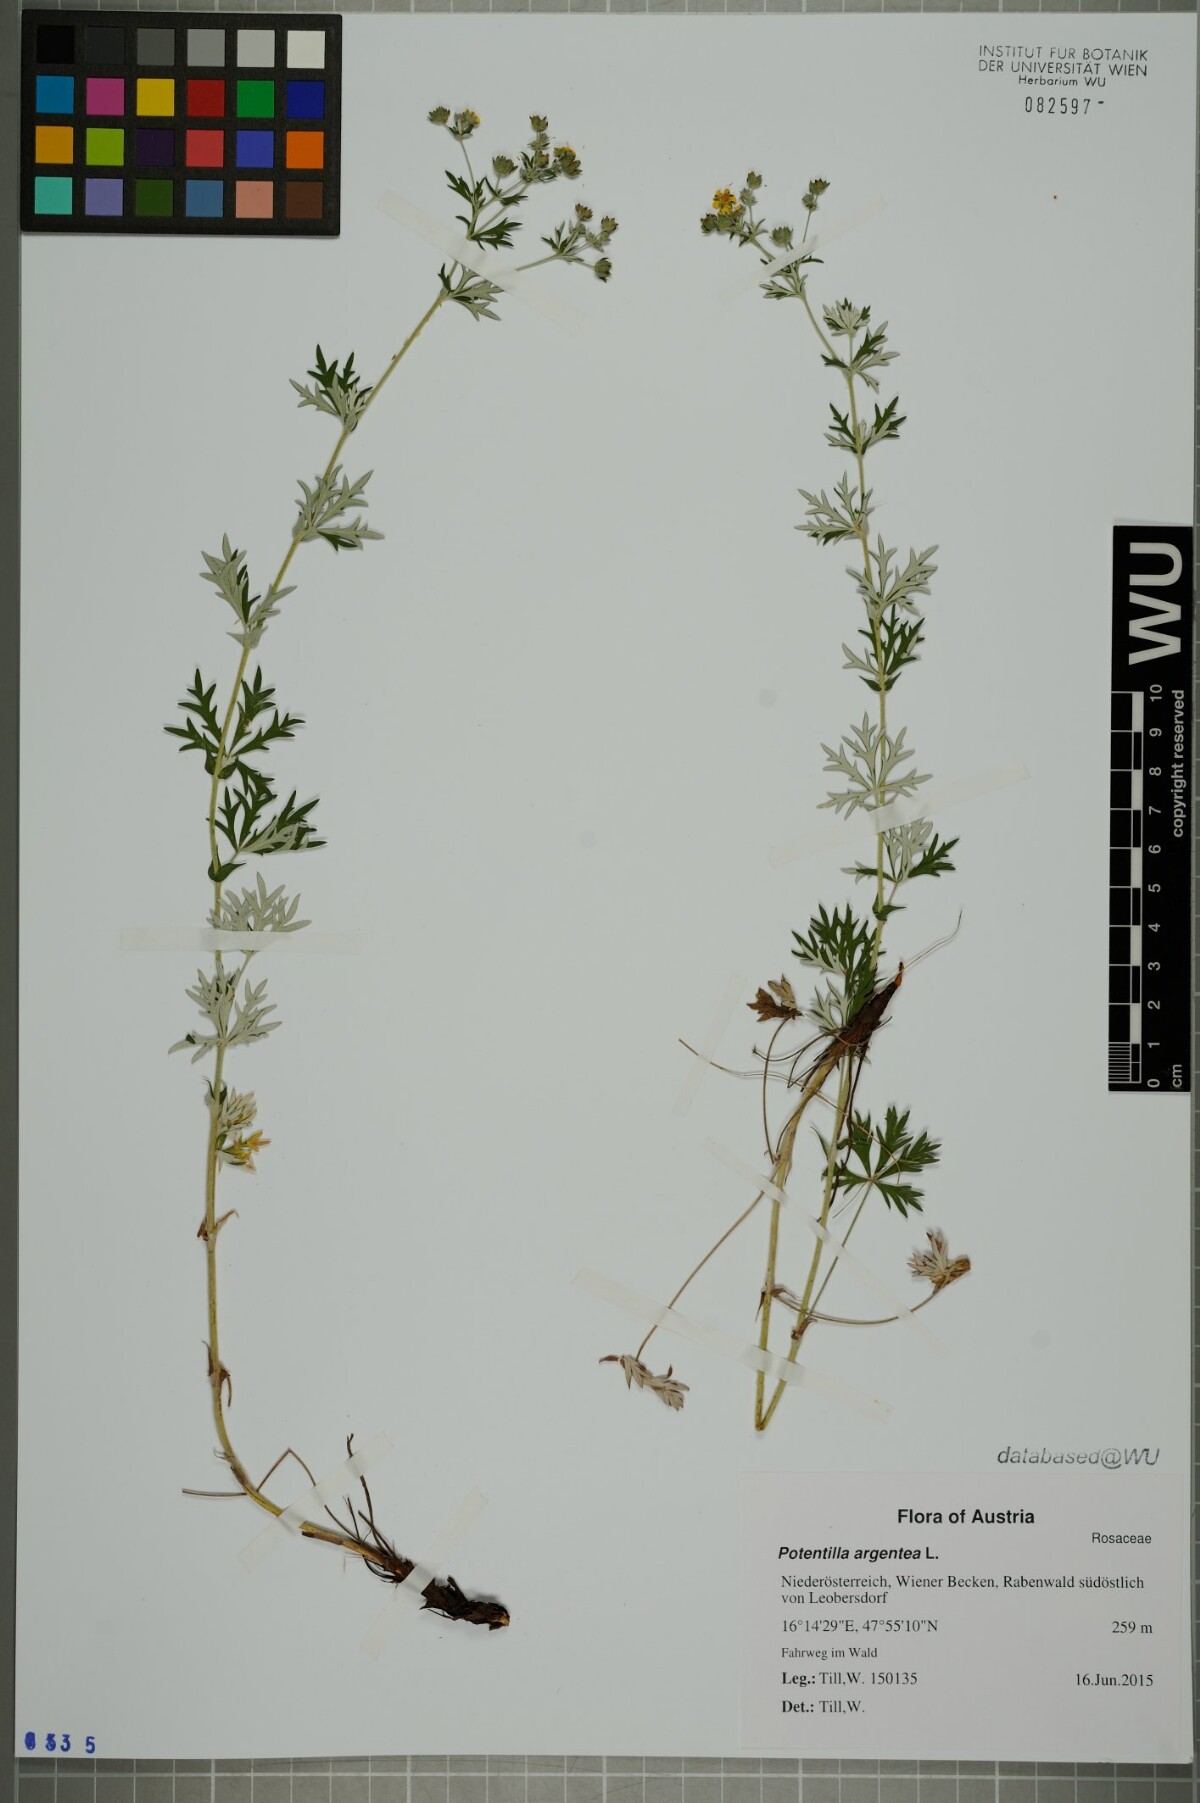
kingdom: Plantae
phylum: Tracheophyta
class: Magnoliopsida
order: Rosales
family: Rosaceae
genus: Potentilla
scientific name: Potentilla argentea
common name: Hoary cinquefoil
